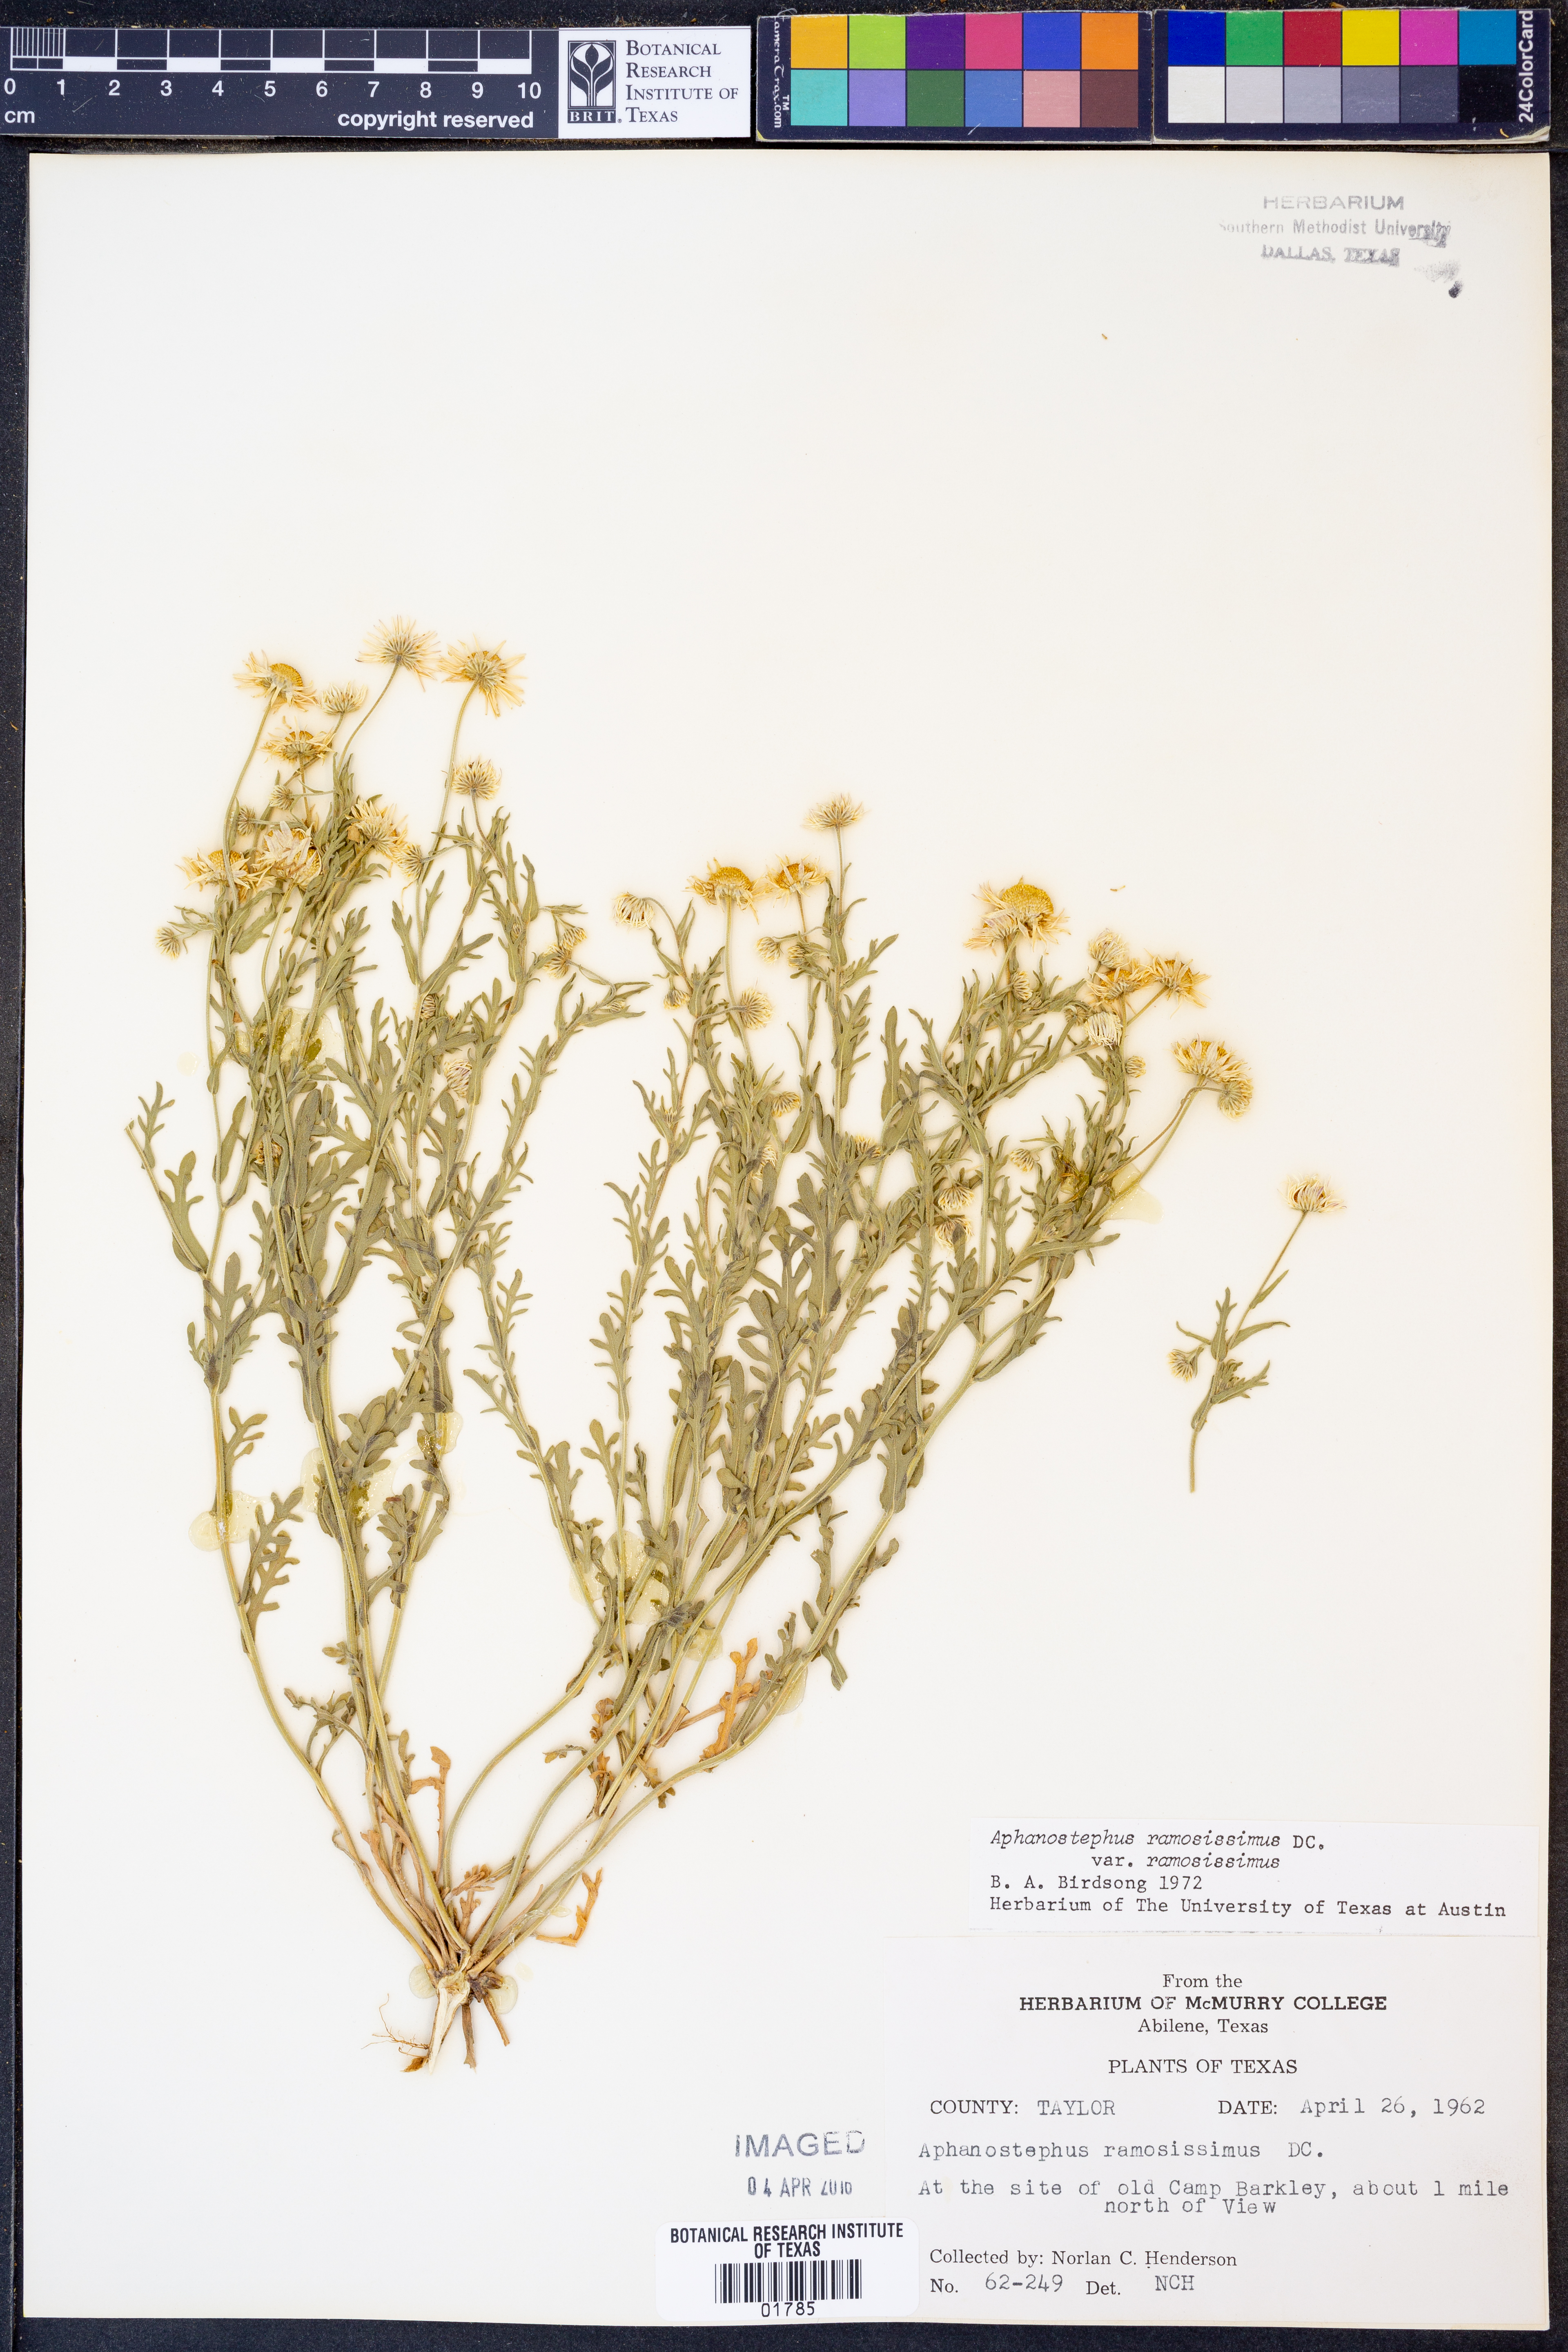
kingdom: Plantae
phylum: Tracheophyta
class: Magnoliopsida
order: Asterales
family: Asteraceae
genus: Aphanostephus
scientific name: Aphanostephus ramosissimus
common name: Plains lazy daisy
